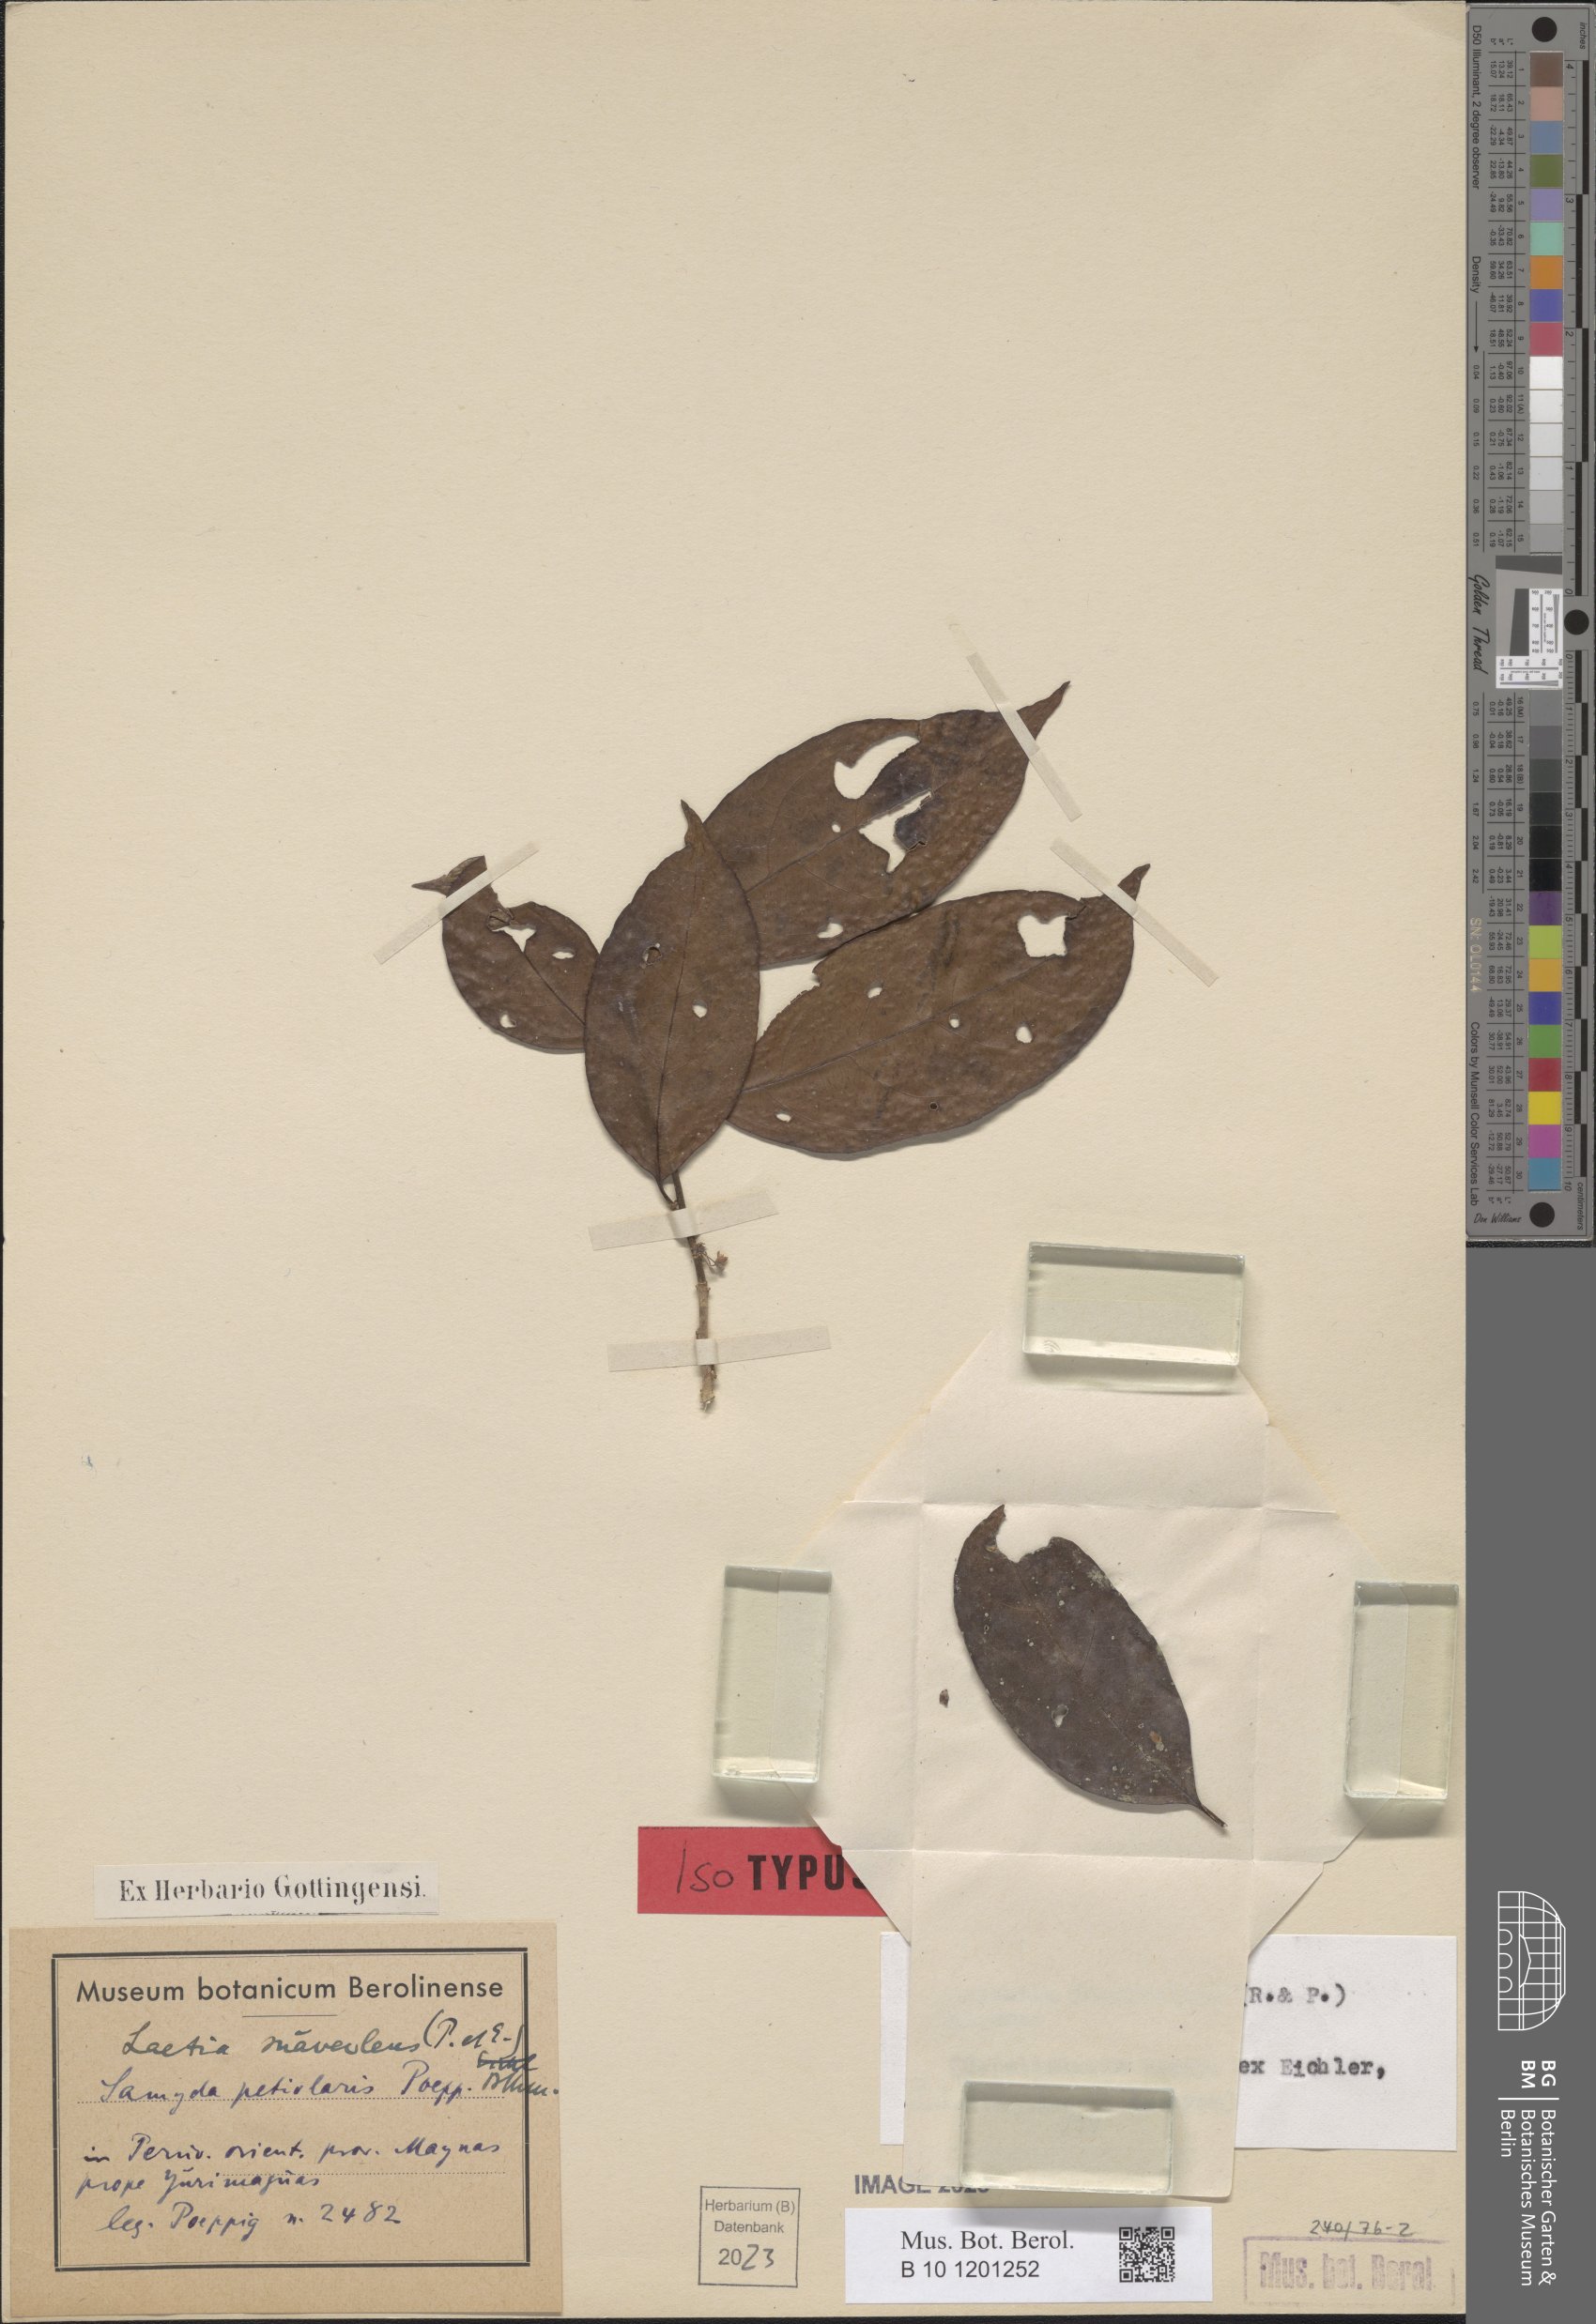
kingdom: Plantae
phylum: Tracheophyta
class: Magnoliopsida
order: Malpighiales
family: Salicaceae
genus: Casearia
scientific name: Casearia fasciculata
